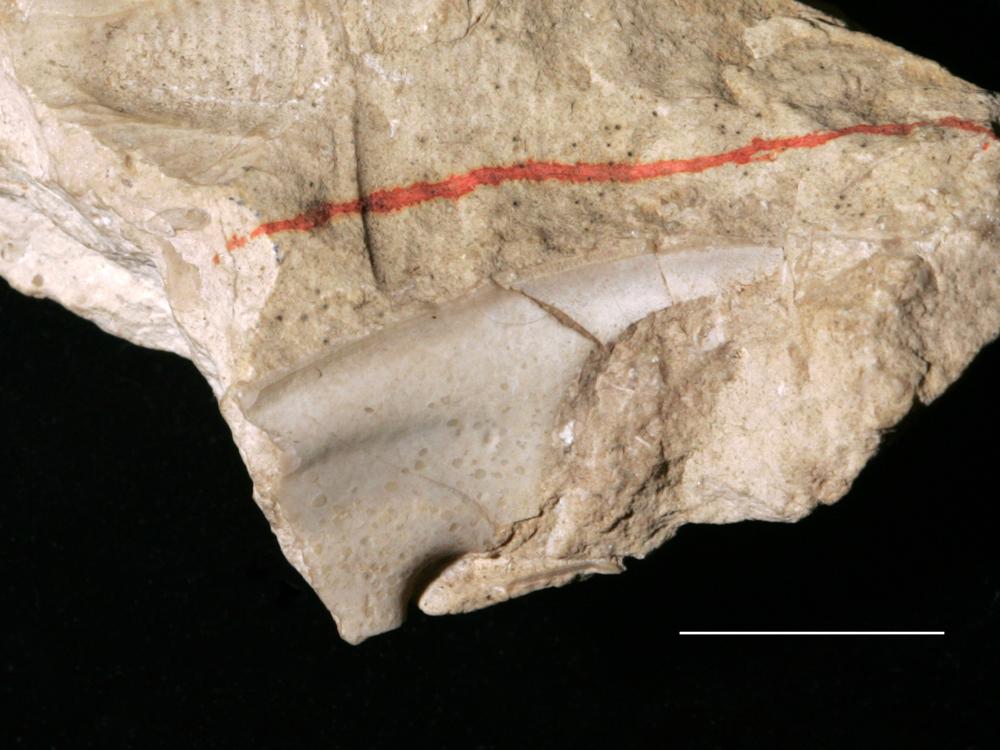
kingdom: Animalia
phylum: Arthropoda
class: Trilobita
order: Asaphida
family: Asaphidae
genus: Isotelus
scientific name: Isotelus platyrhachis
